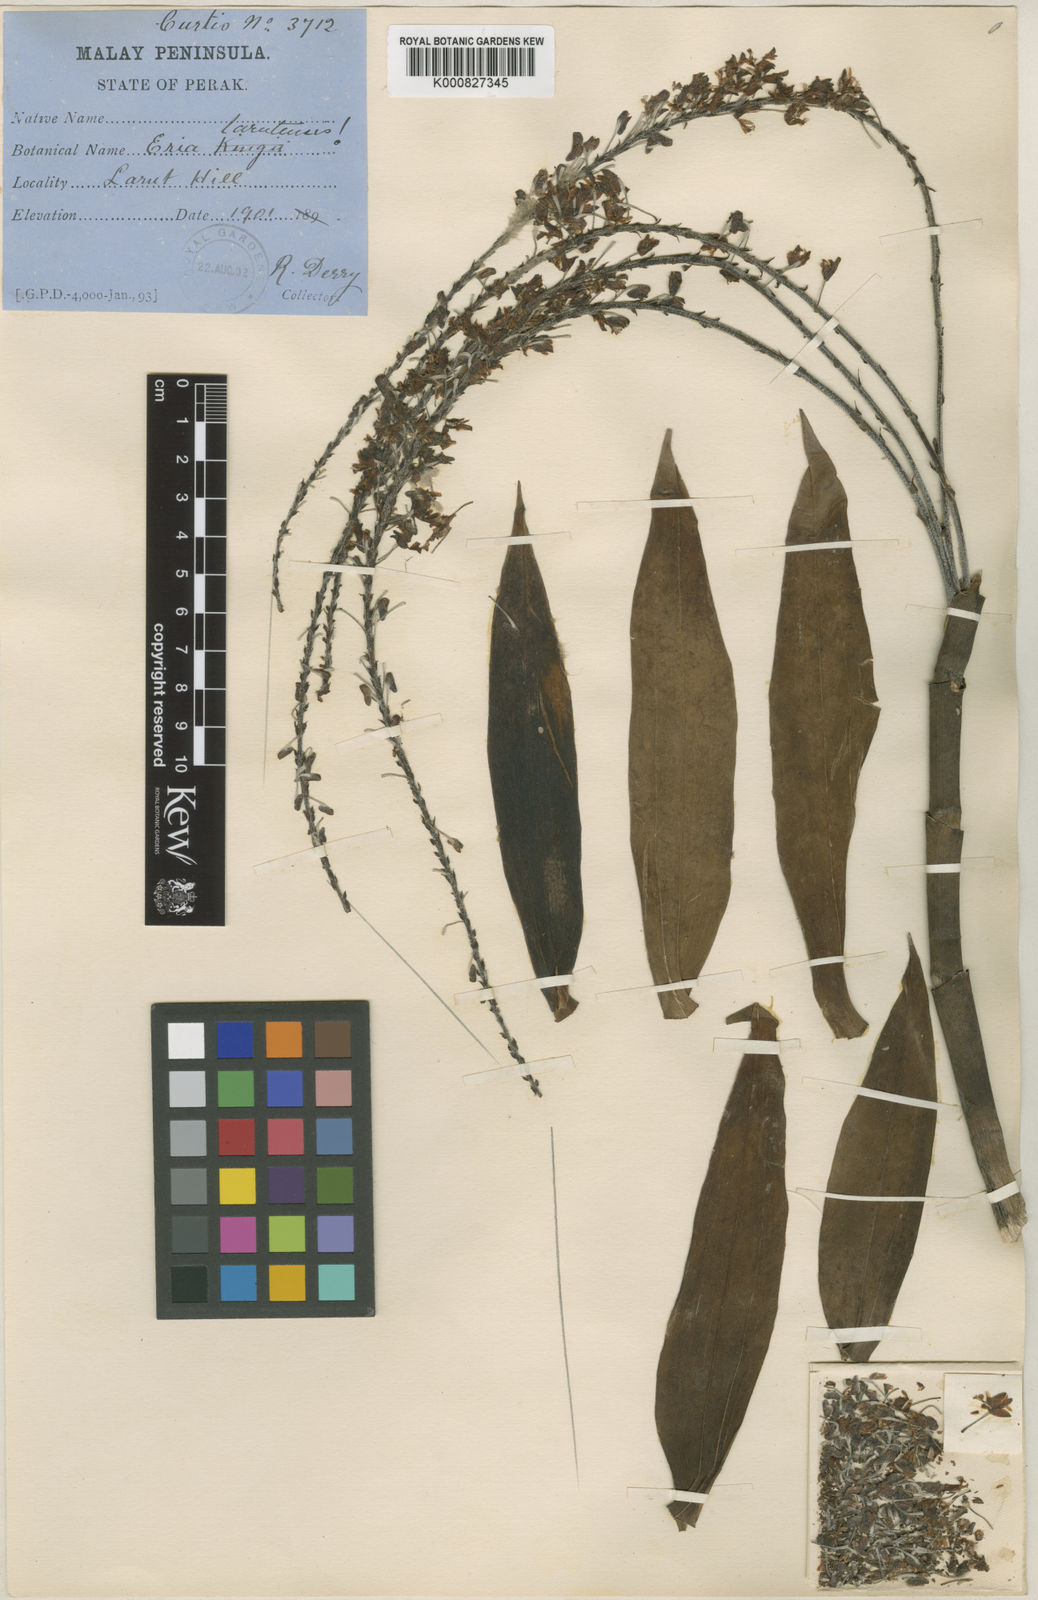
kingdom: Plantae
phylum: Tracheophyta
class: Liliopsida
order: Asparagales
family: Orchidaceae
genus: Mycaranthes
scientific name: Mycaranthes oblitterata
